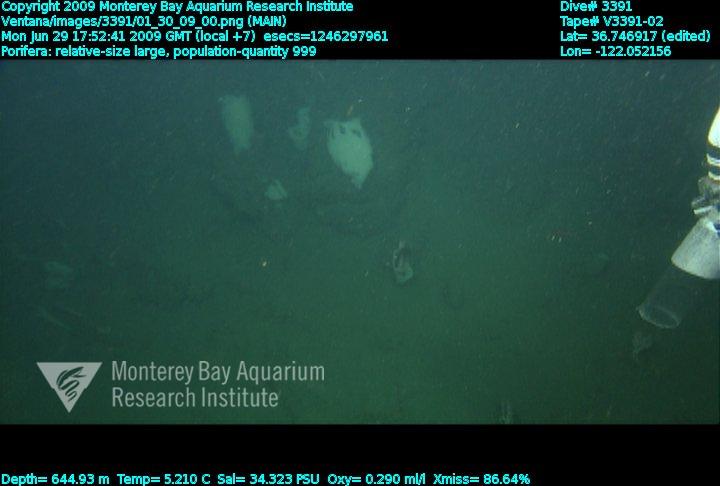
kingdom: Animalia
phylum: Porifera
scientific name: Porifera
